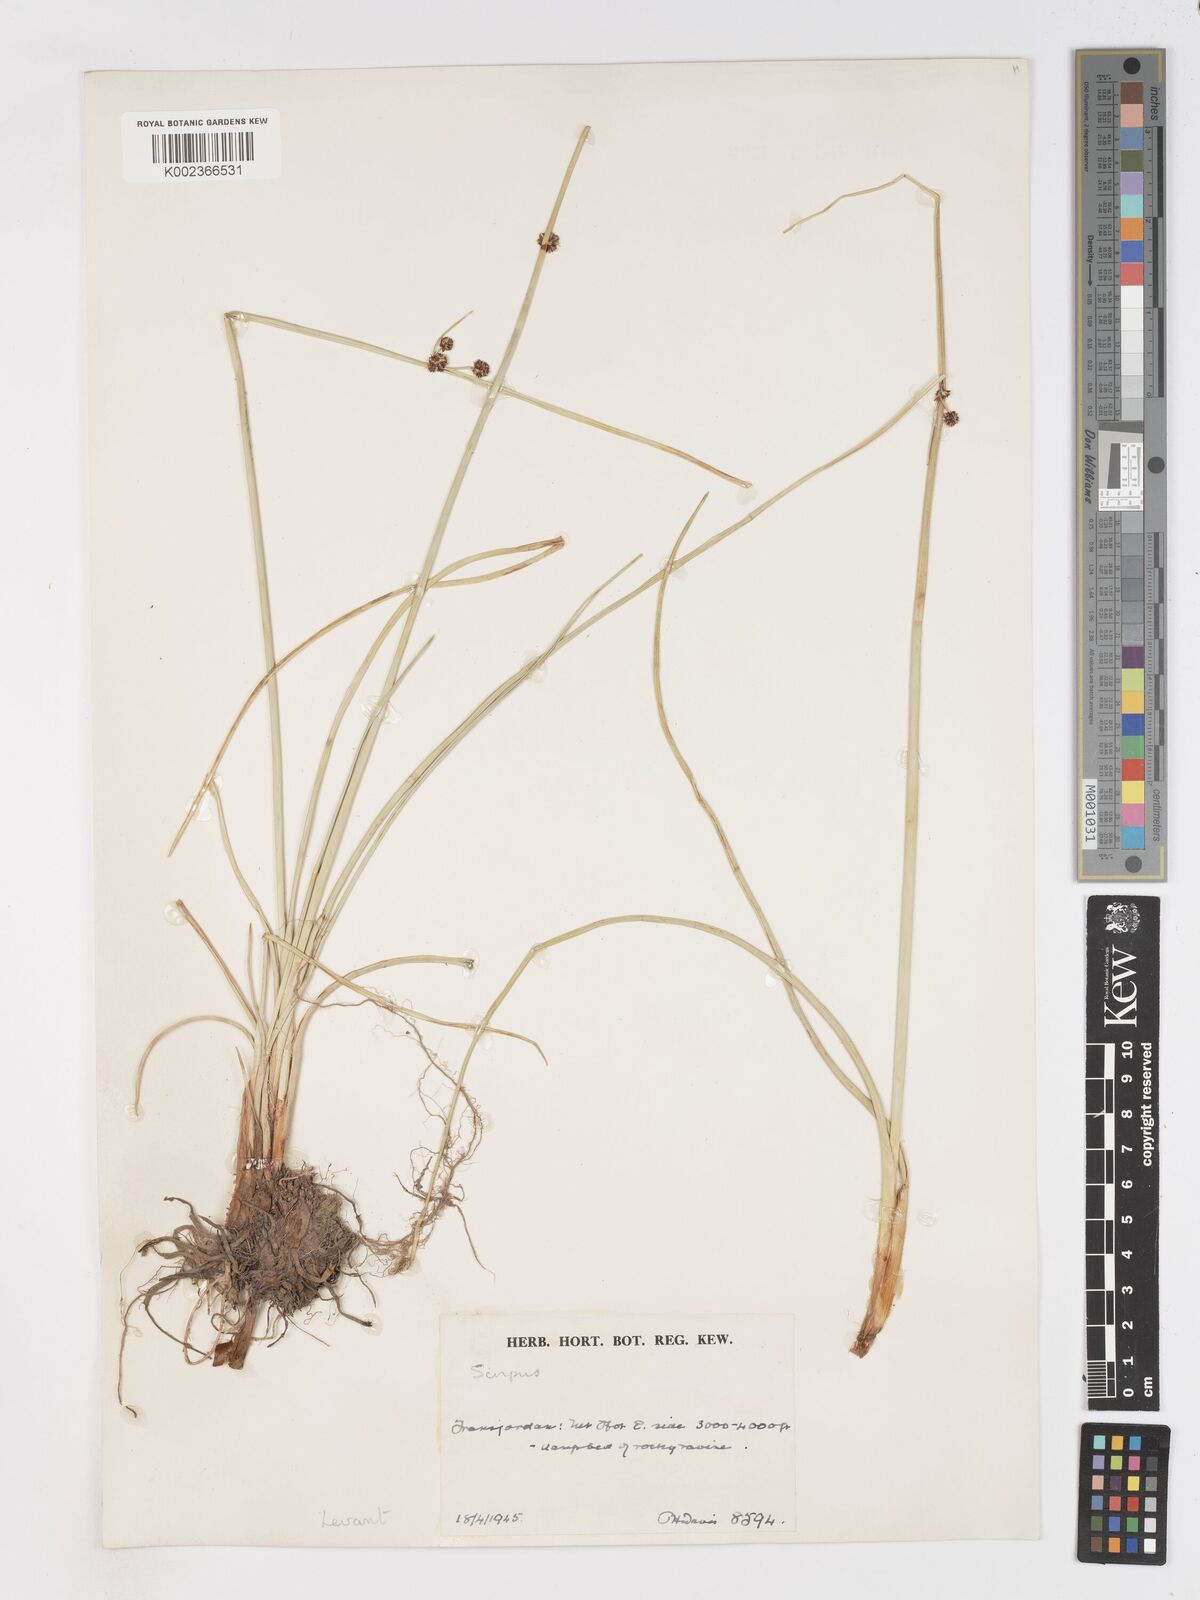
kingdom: Plantae
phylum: Tracheophyta
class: Liliopsida
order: Poales
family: Cyperaceae
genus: Scirpoides
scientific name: Scirpoides holoschoenus
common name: Round-headed club-rush
